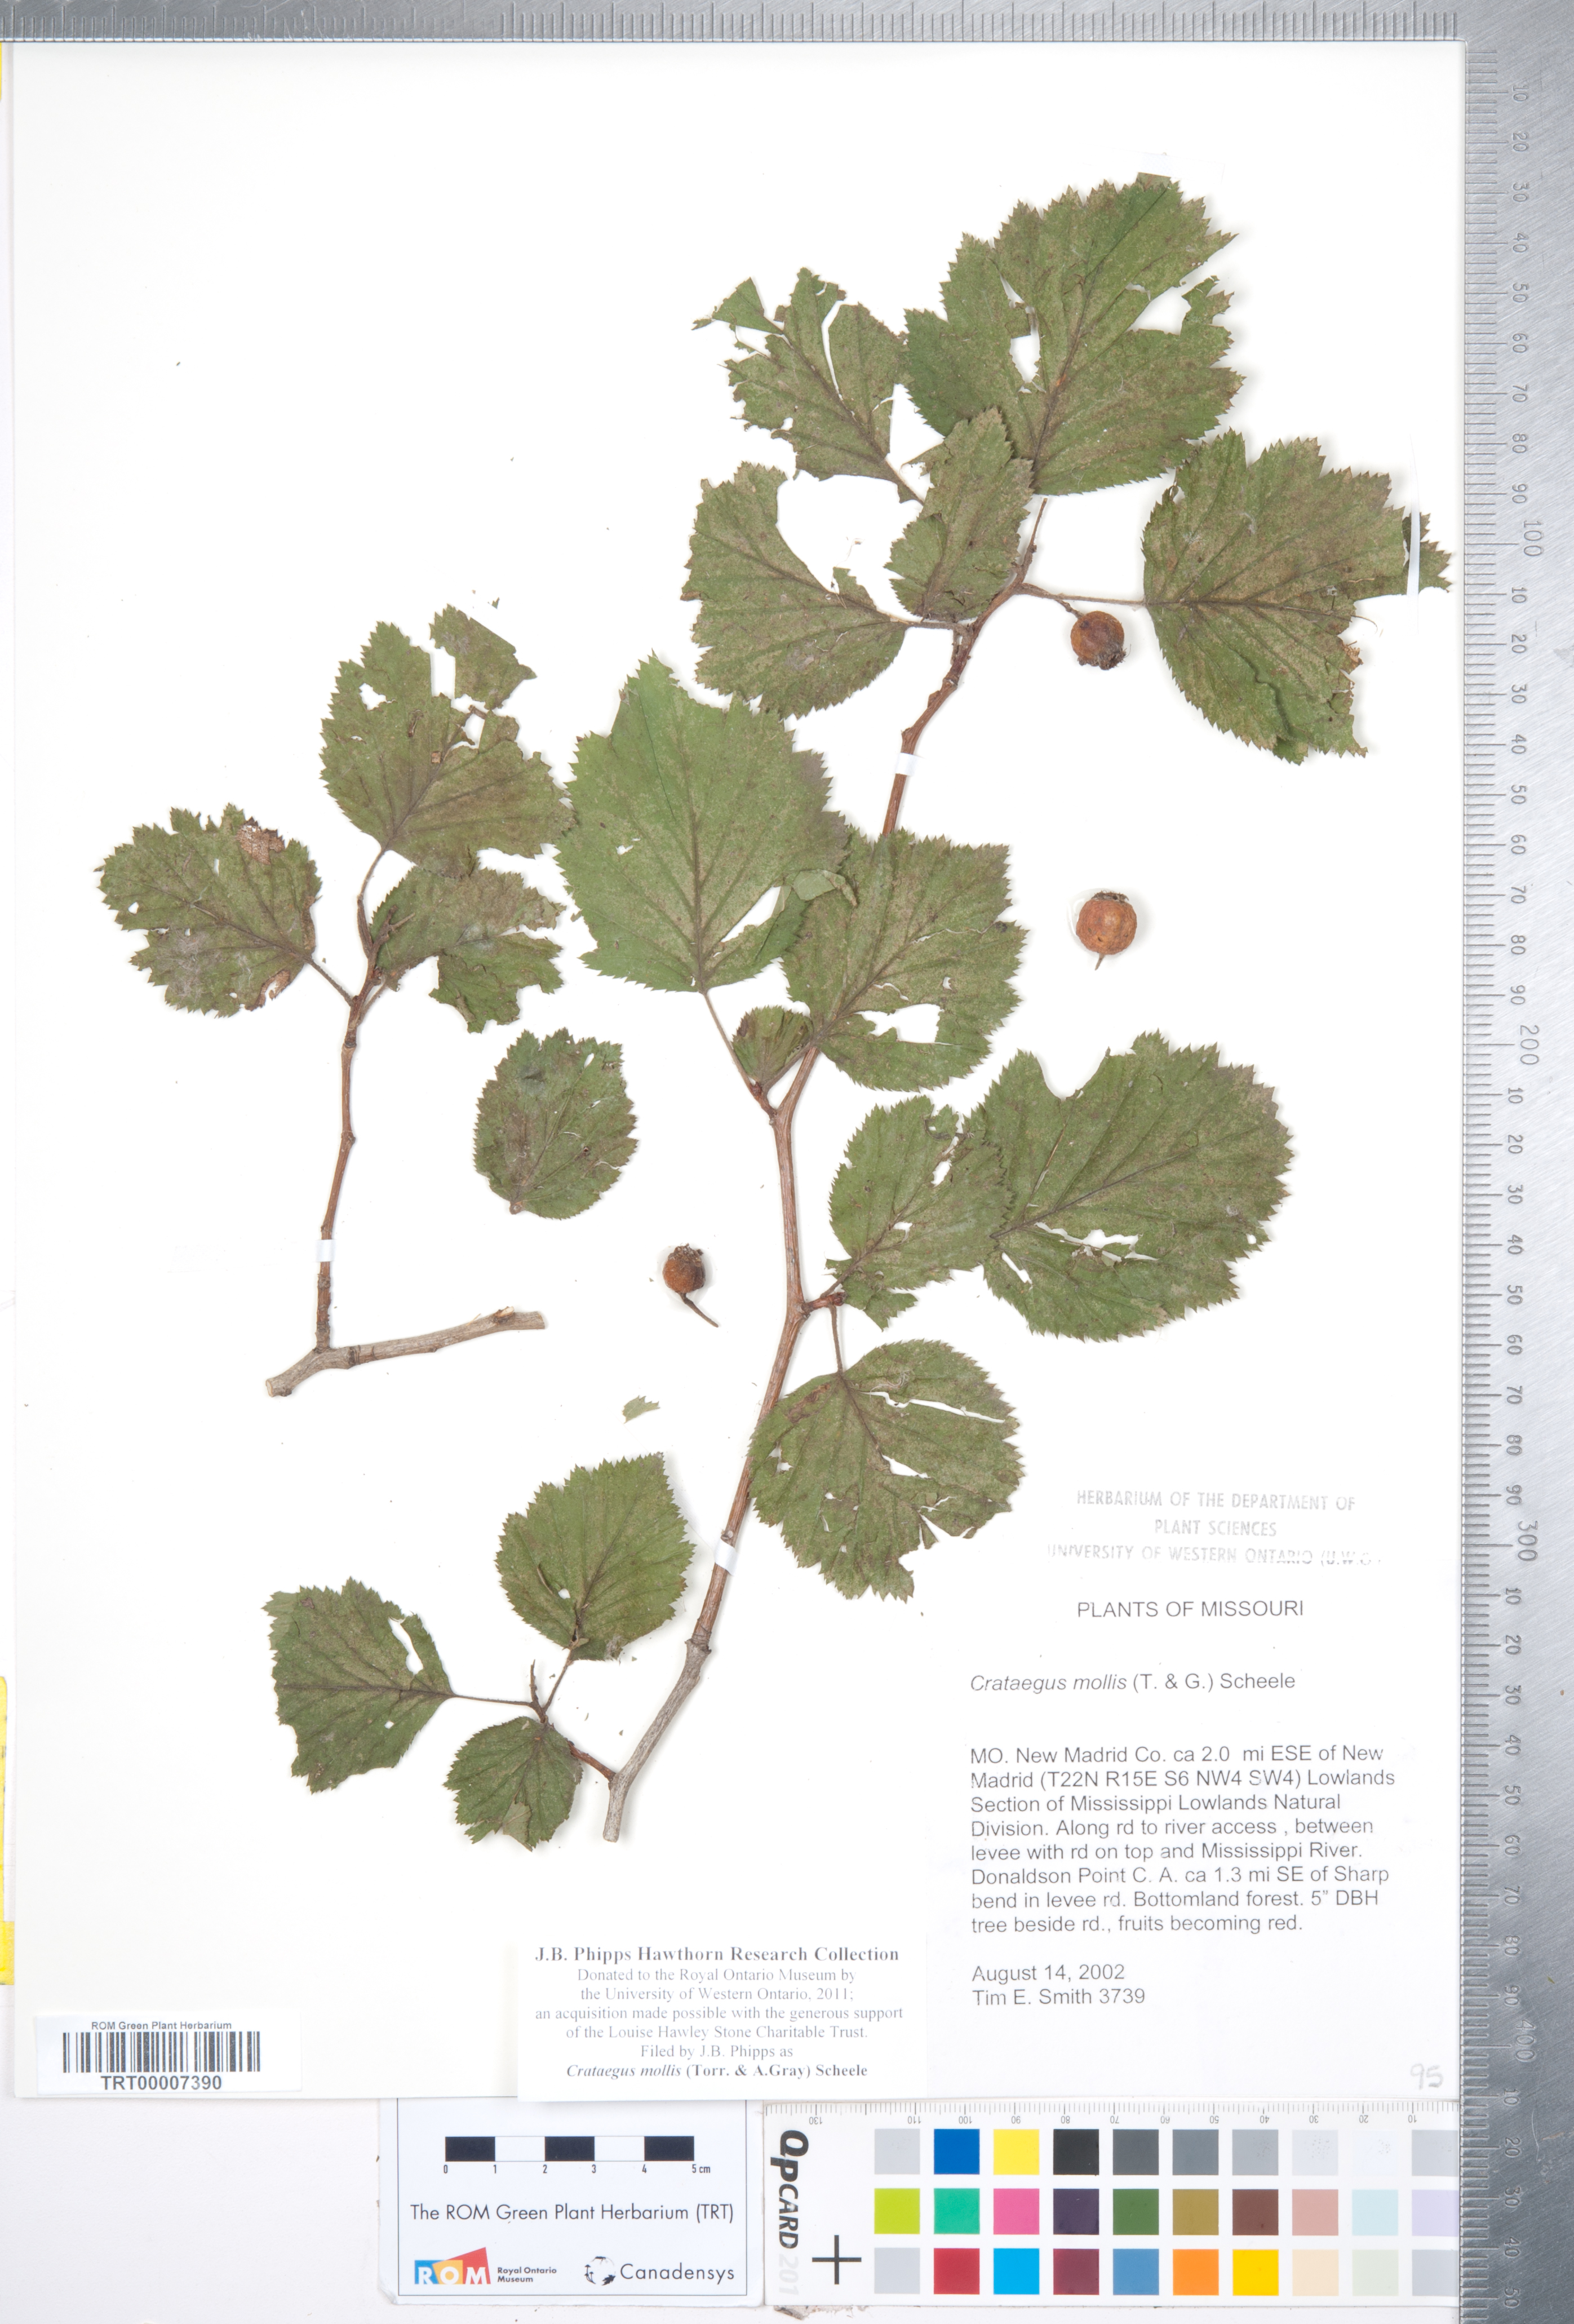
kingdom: Plantae
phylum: Tracheophyta
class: Magnoliopsida
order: Rosales
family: Rosaceae
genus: Crataegus
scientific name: Crataegus mollis
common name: Downy hawthorn
